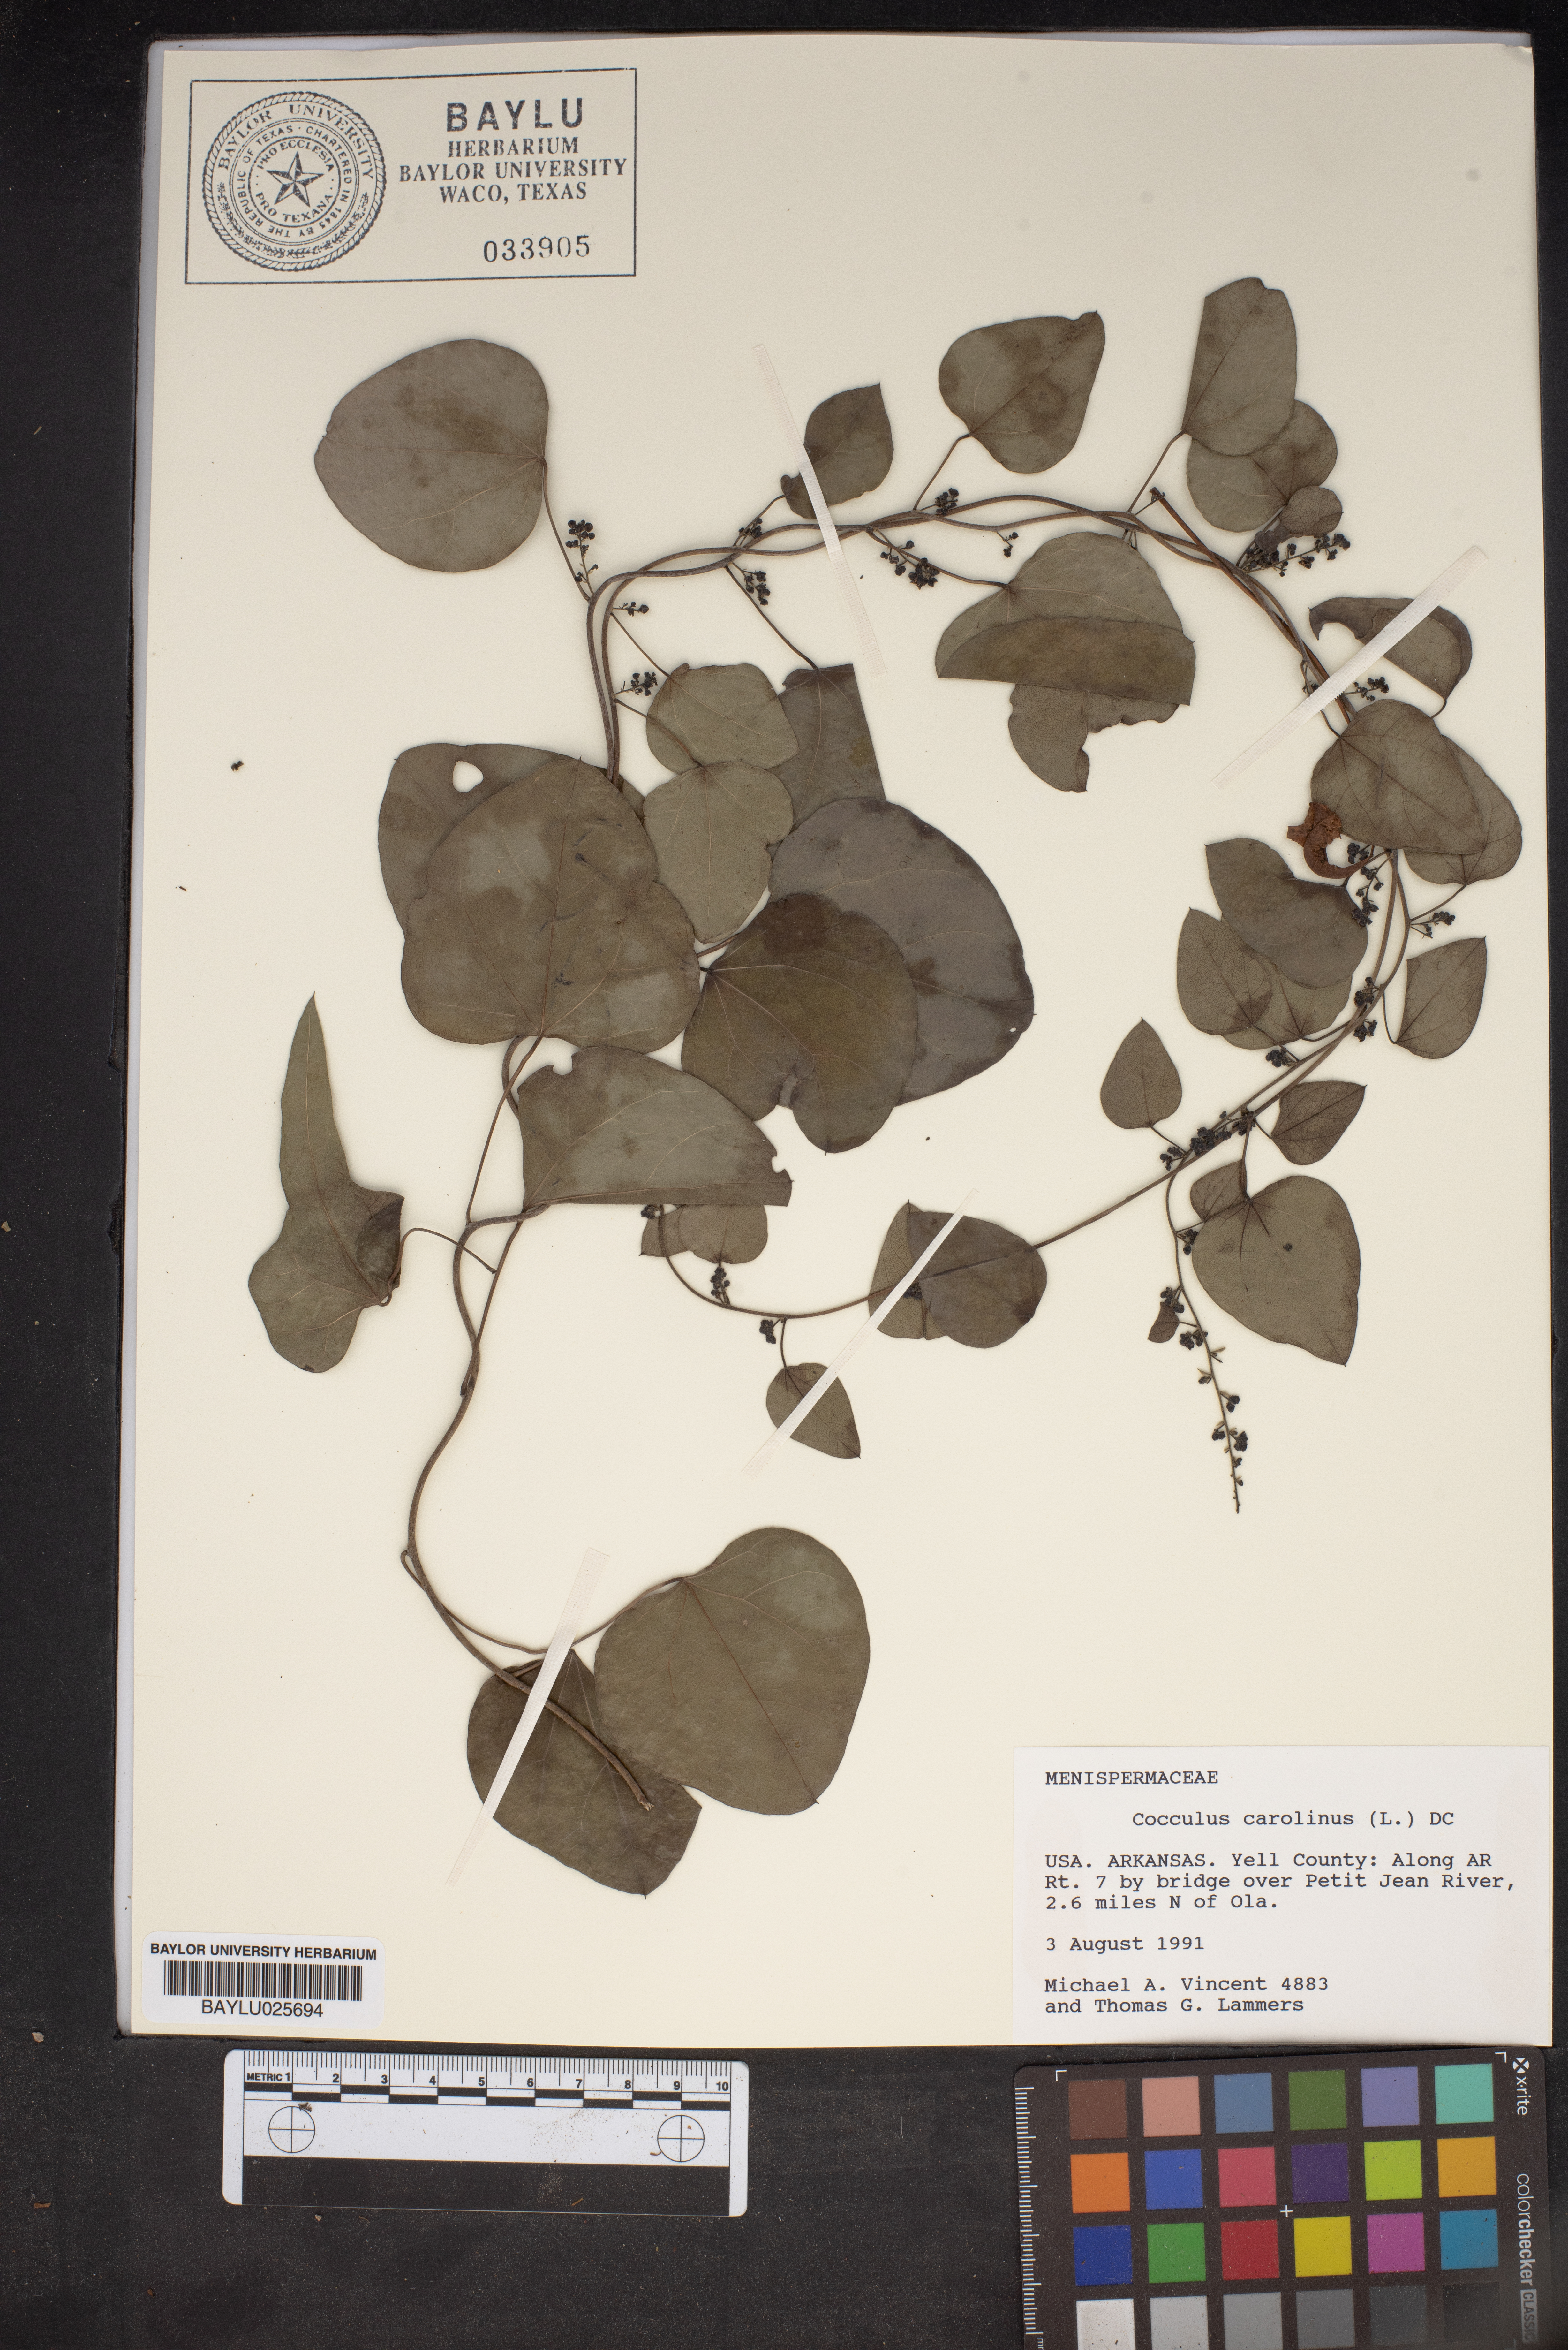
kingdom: Plantae
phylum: Tracheophyta
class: Magnoliopsida
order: Ranunculales
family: Menispermaceae
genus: Cocculus
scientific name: Cocculus carolinus
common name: Carolina moonseed
